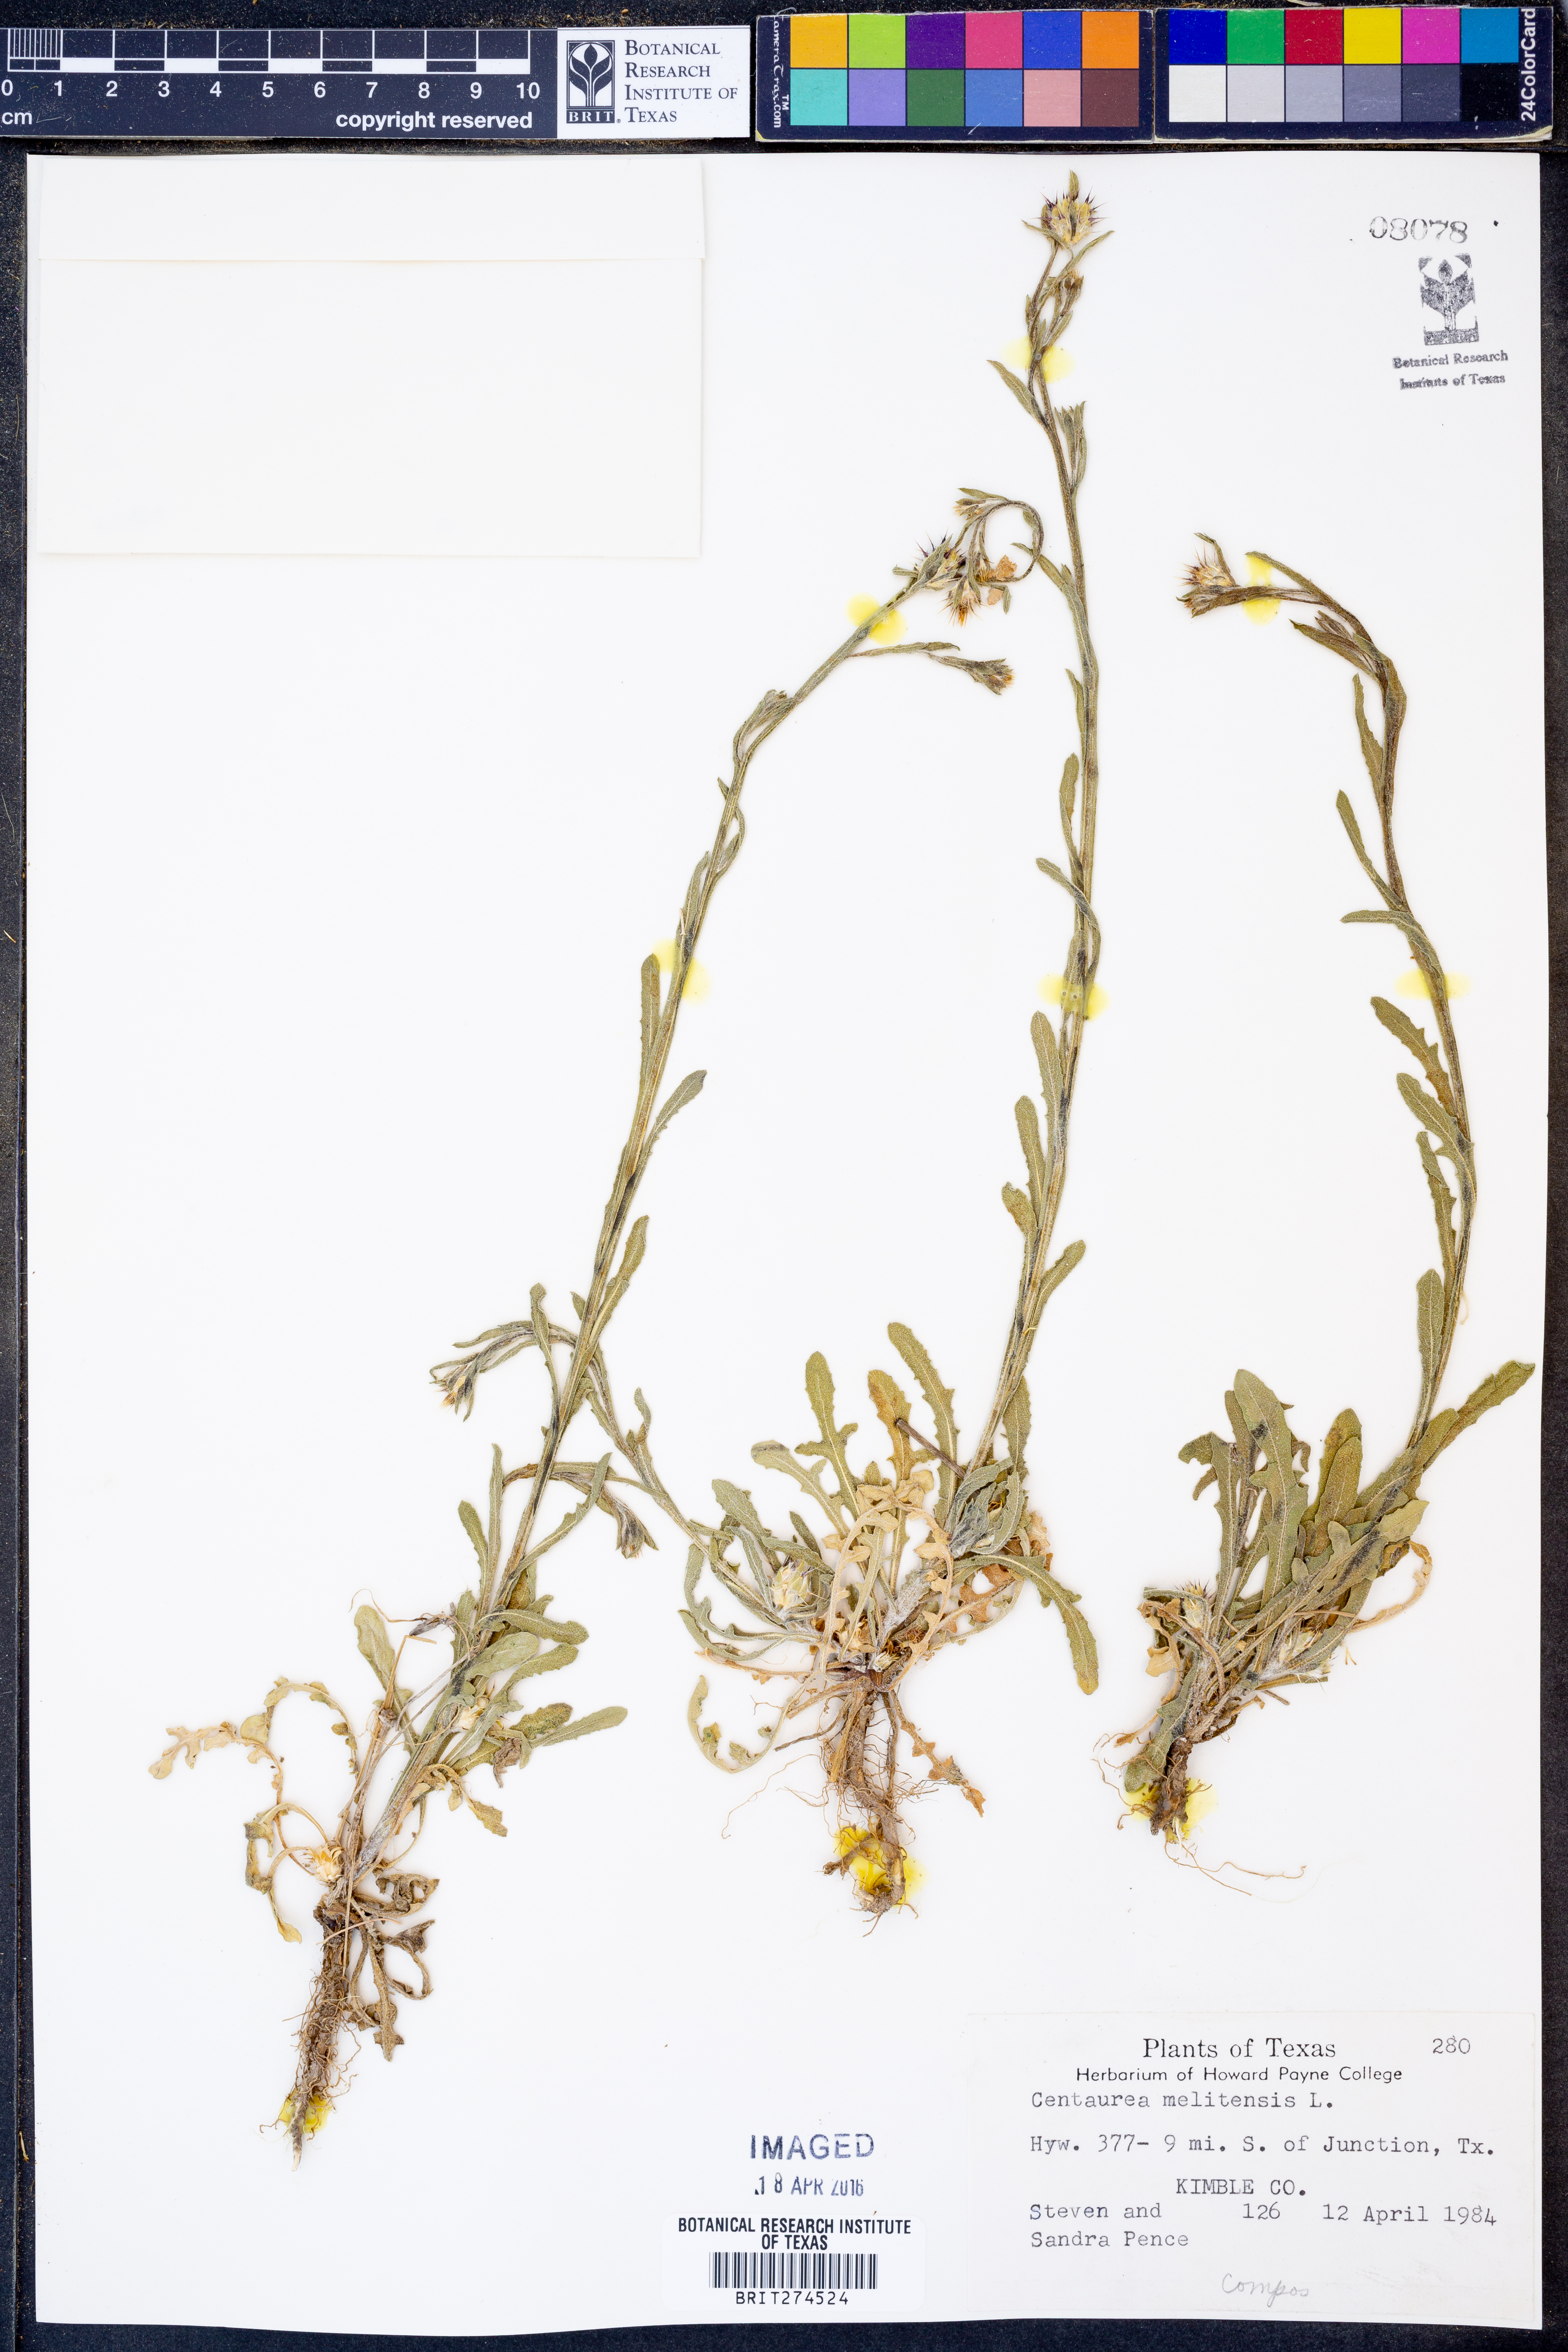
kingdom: Plantae
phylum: Tracheophyta
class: Magnoliopsida
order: Asterales
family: Asteraceae
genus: Centaurea
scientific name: Centaurea melitensis
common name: Maltese star-thistle
